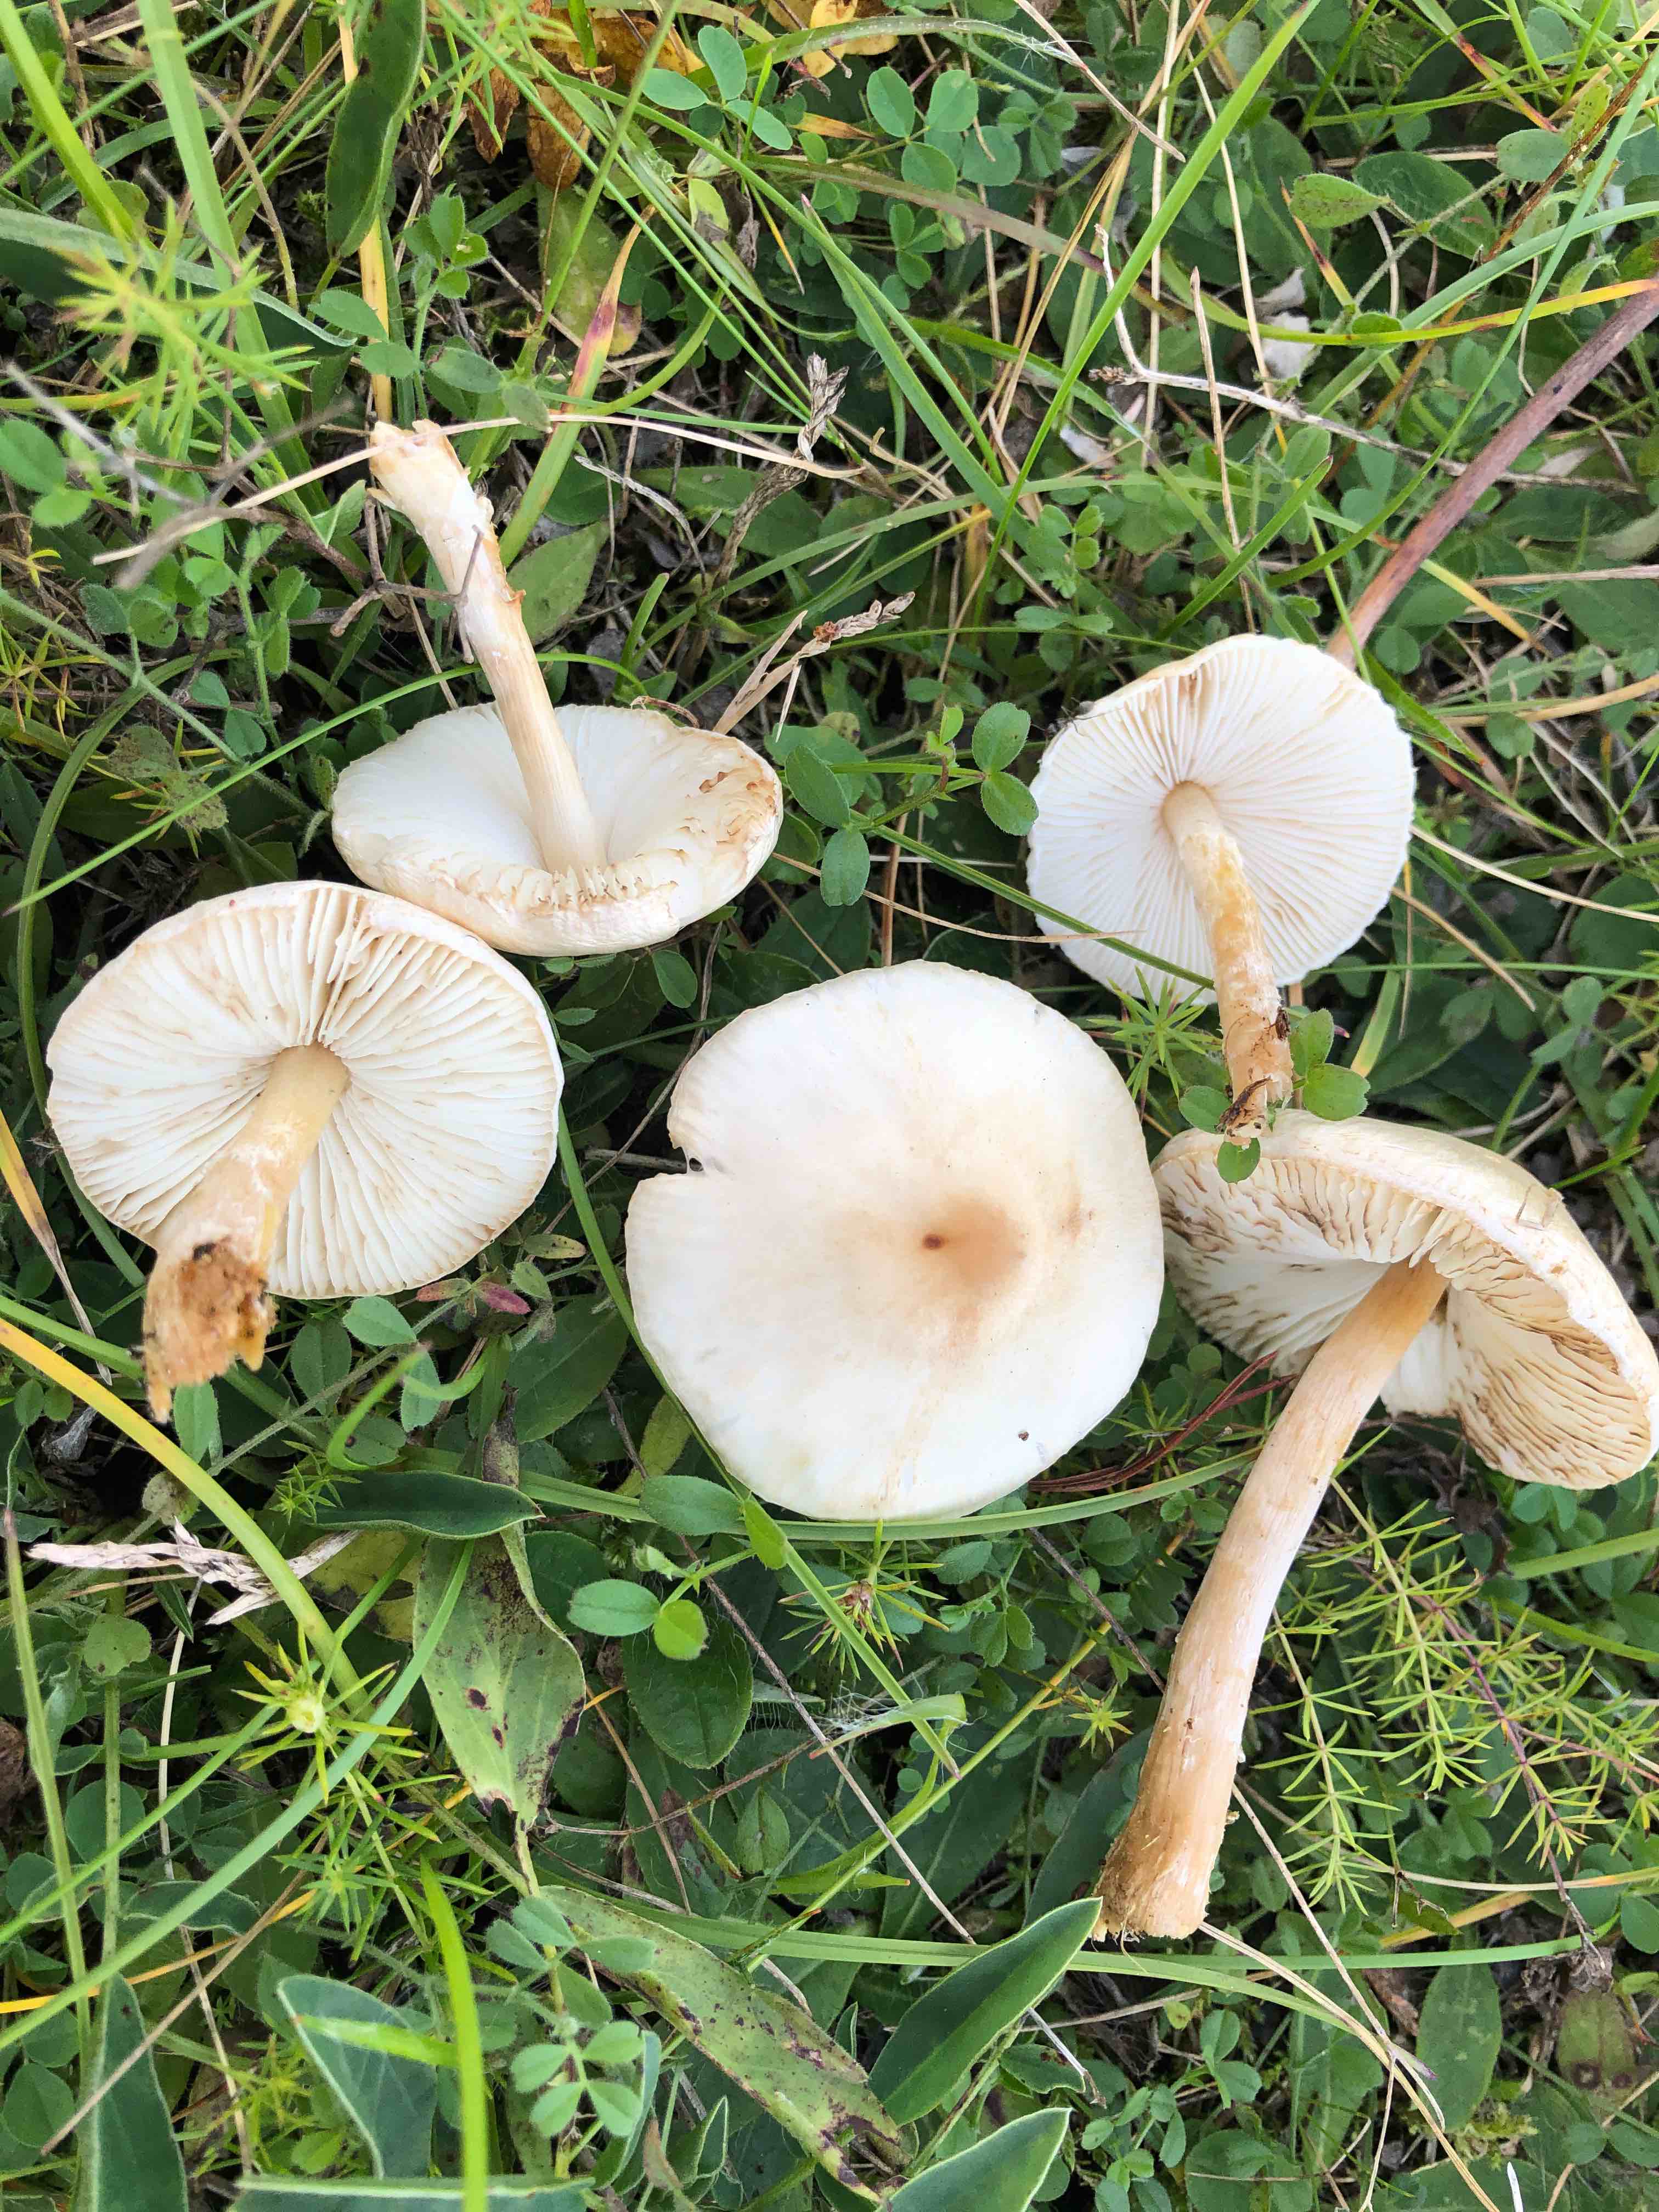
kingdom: Fungi
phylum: Basidiomycota
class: Agaricomycetes
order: Agaricales
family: Agaricaceae
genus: Lepiota
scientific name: Lepiota erminea
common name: hvid parasolhat
